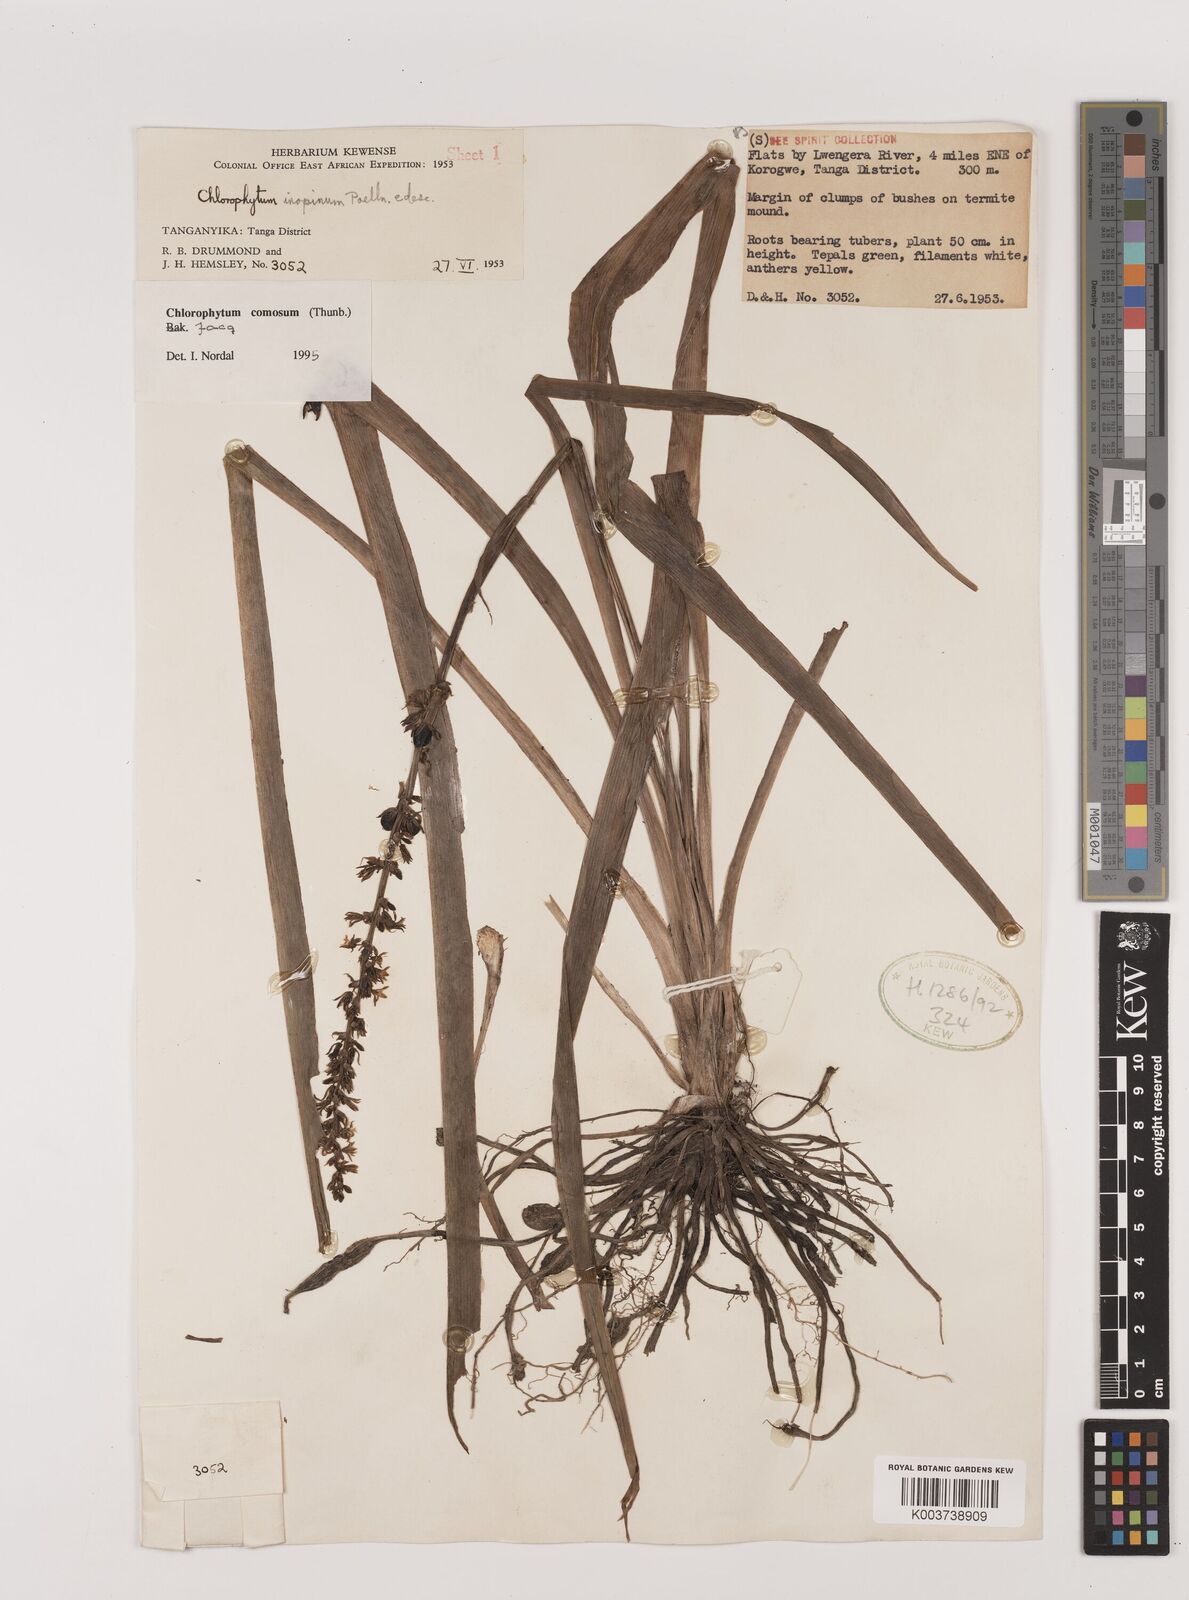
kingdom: Plantae
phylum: Tracheophyta
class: Liliopsida
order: Asparagales
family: Asparagaceae
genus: Chlorophytum
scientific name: Chlorophytum comosum
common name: Spider plant
